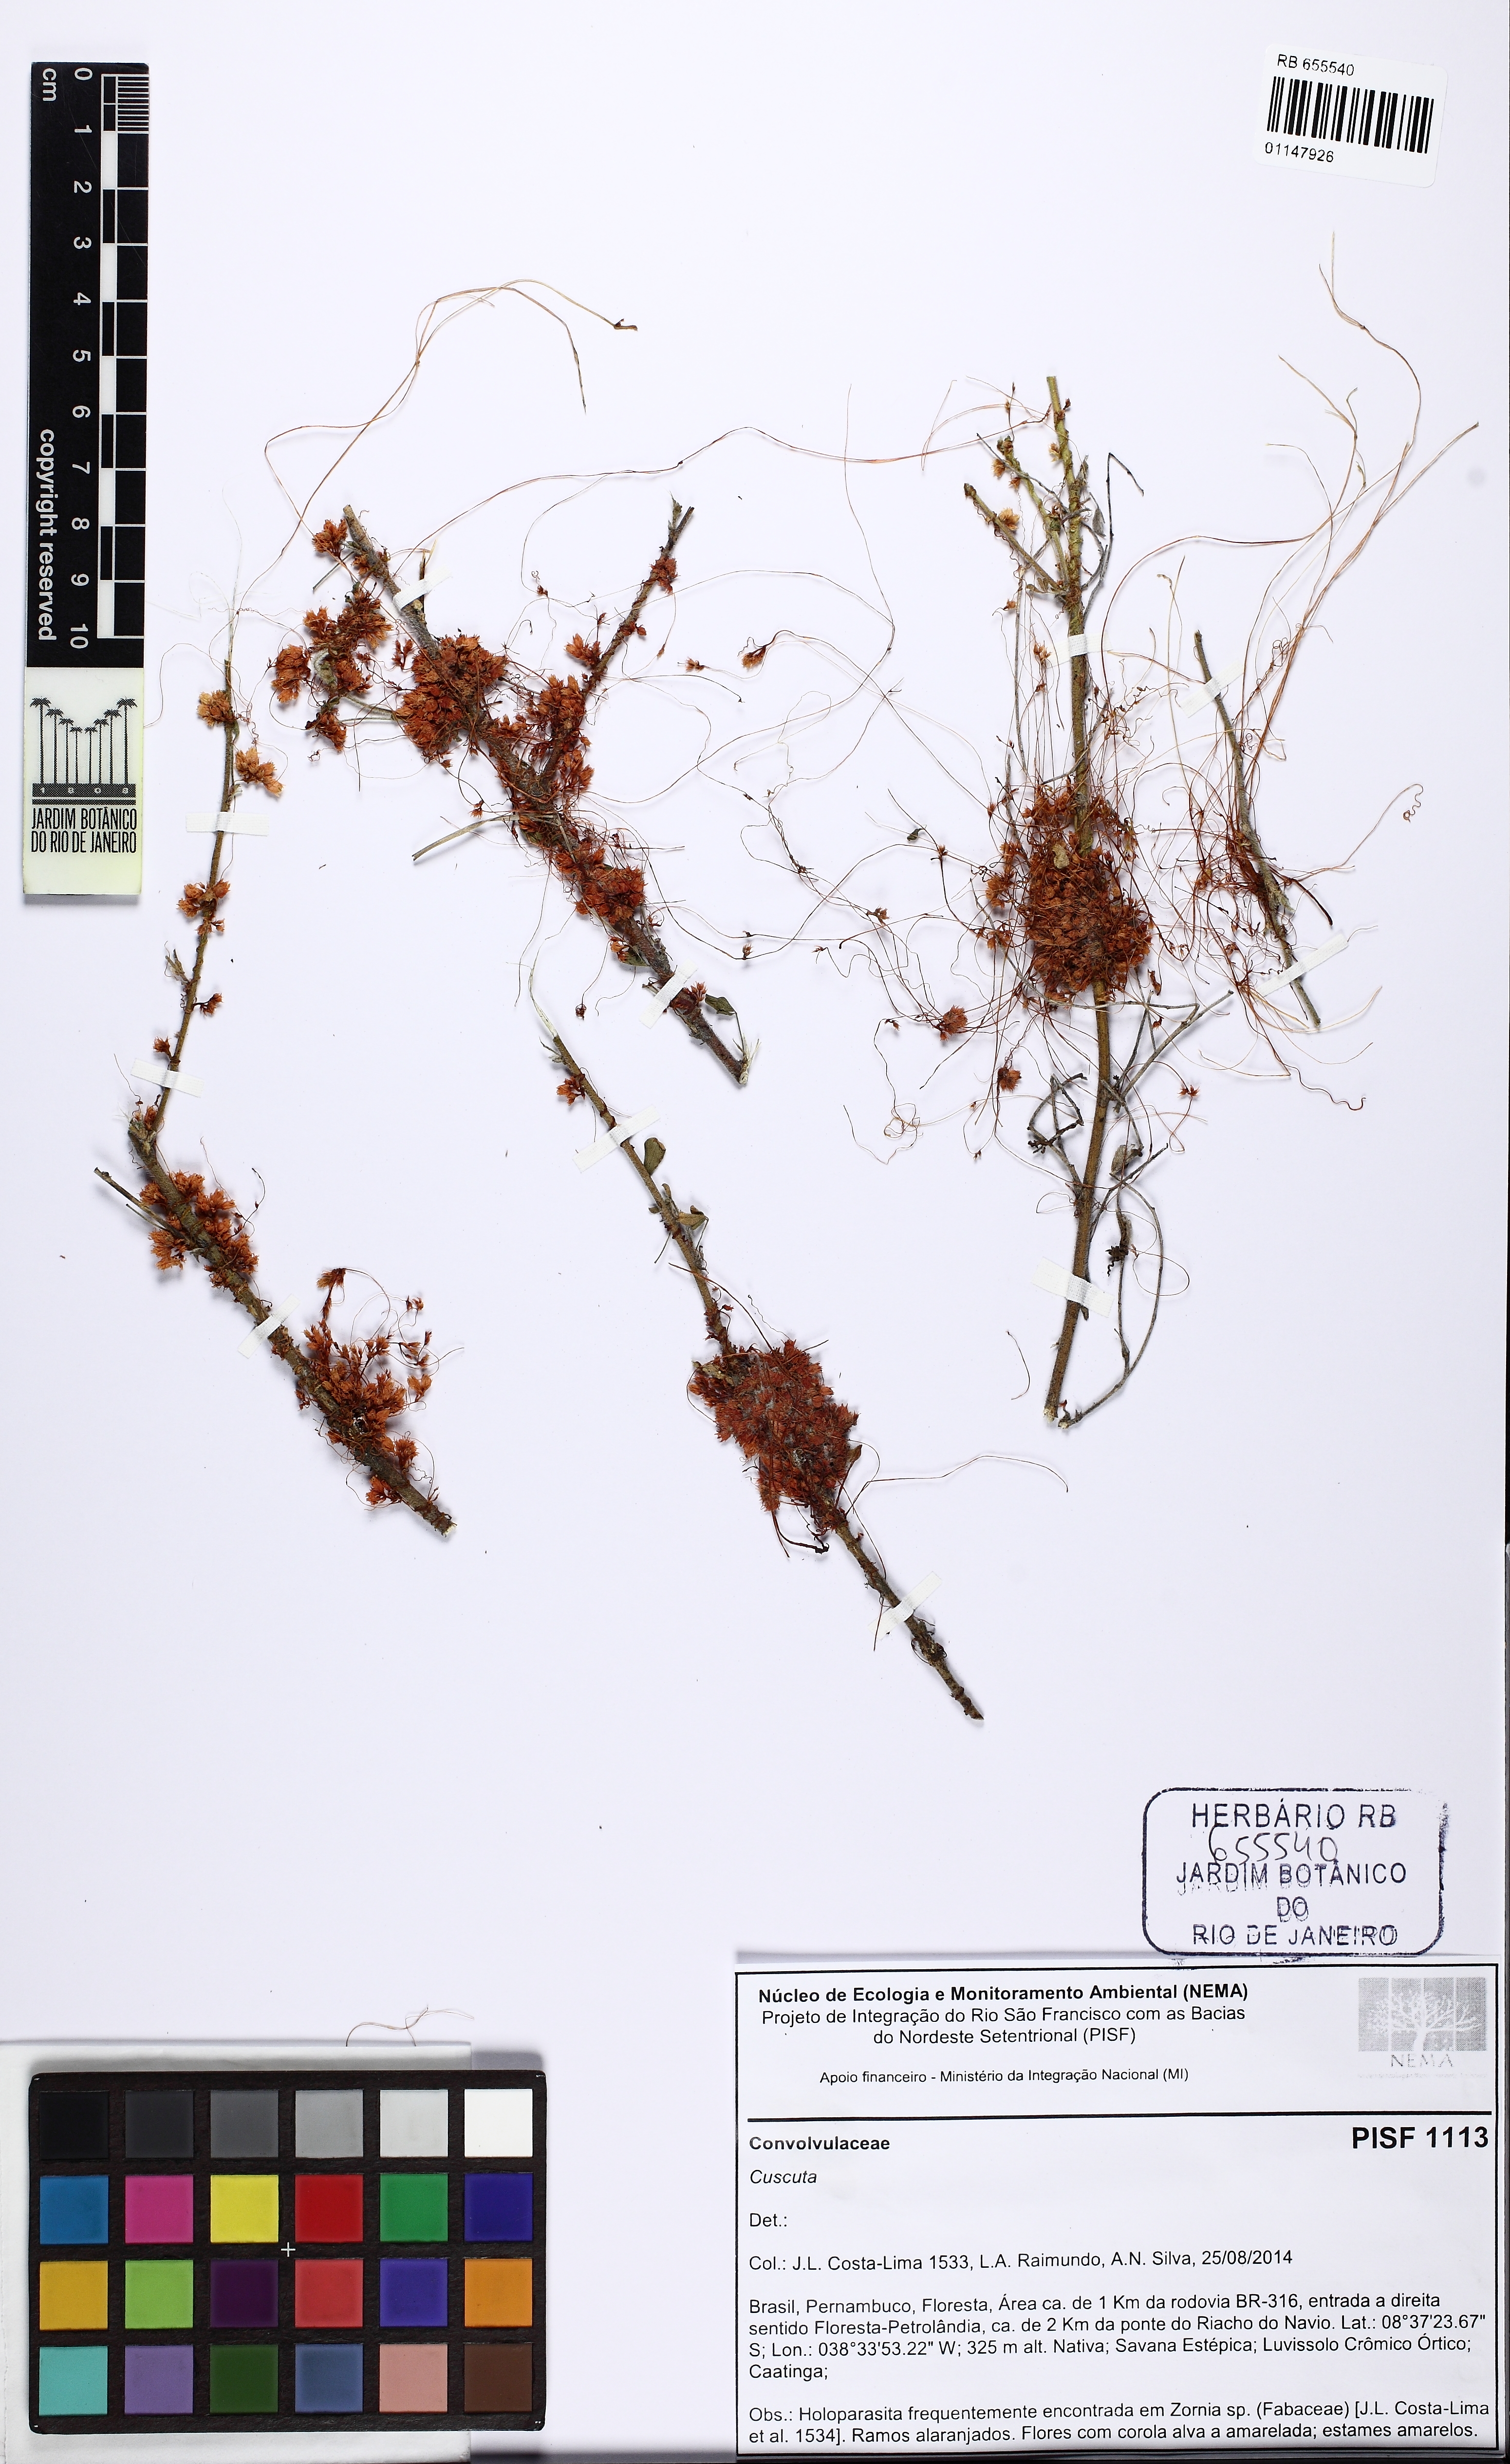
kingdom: Plantae
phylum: Tracheophyta
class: Magnoliopsida
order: Solanales
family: Convolvulaceae
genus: Cuscuta
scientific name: Cuscuta
